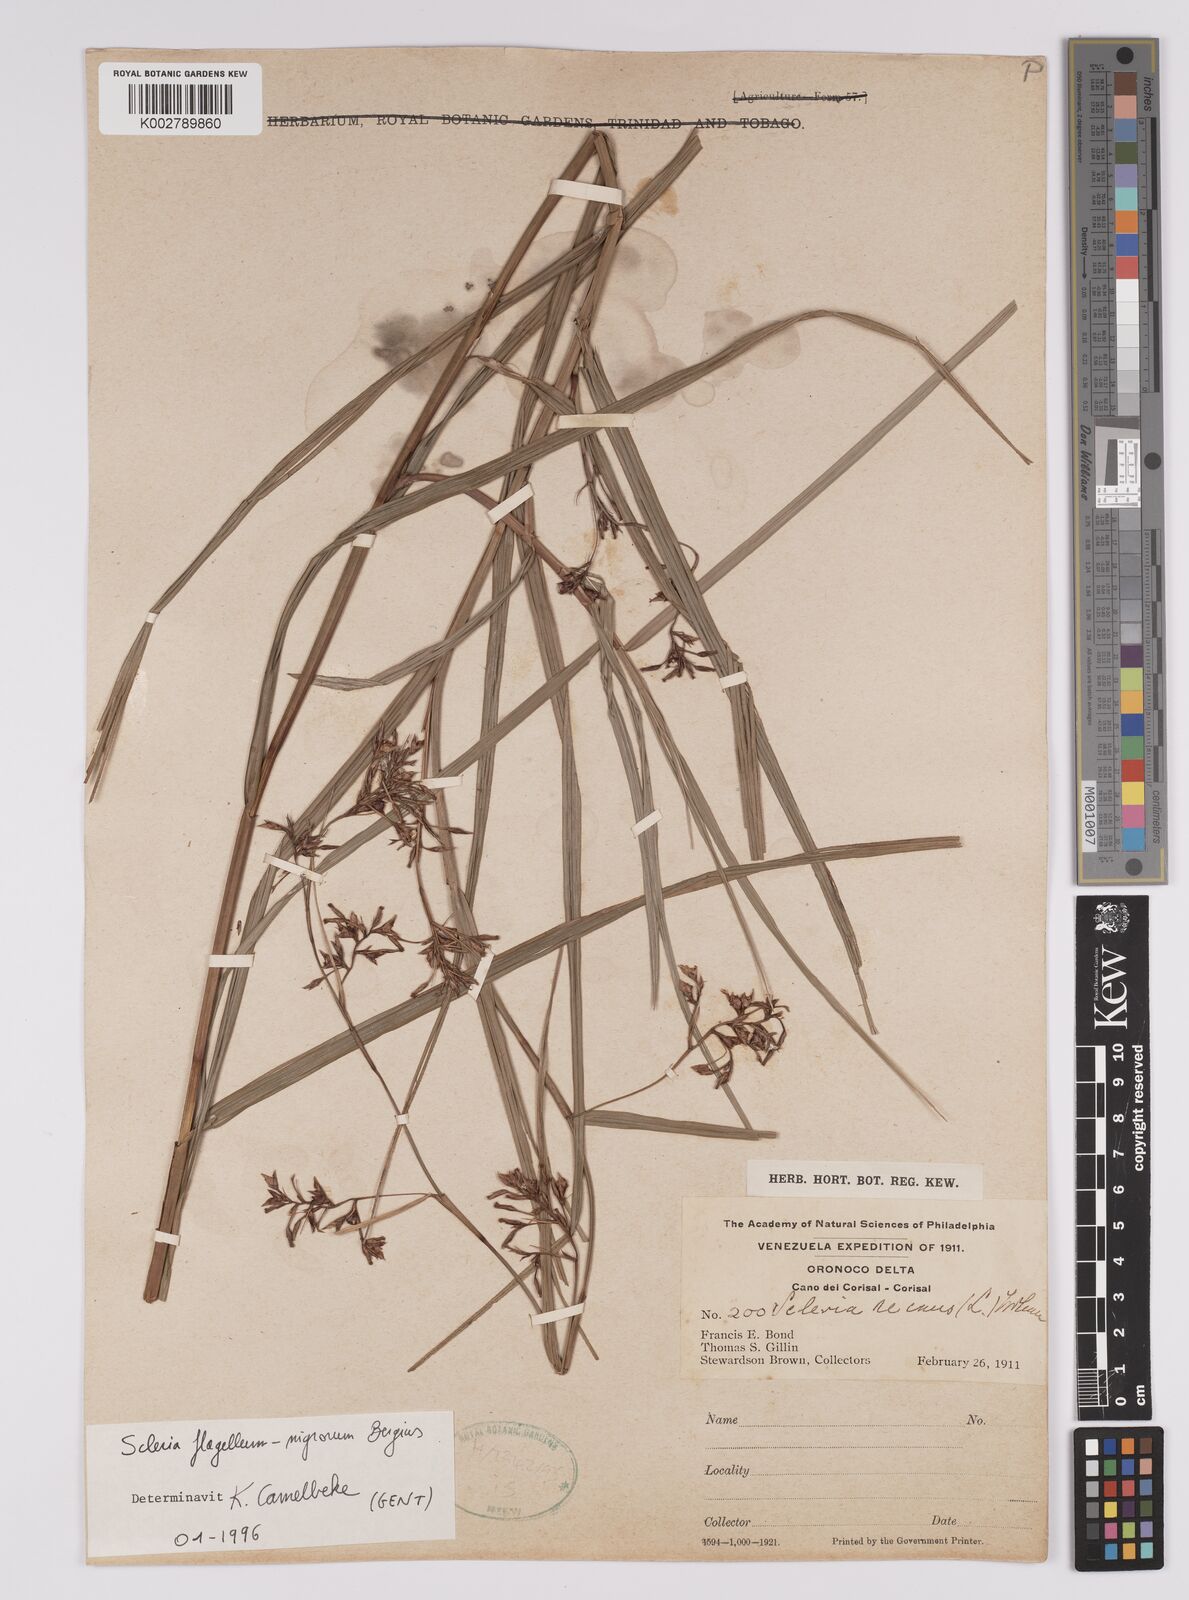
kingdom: Plantae
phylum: Tracheophyta
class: Liliopsida
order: Poales
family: Cyperaceae
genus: Scleria
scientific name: Scleria flagellum-nigrorum
